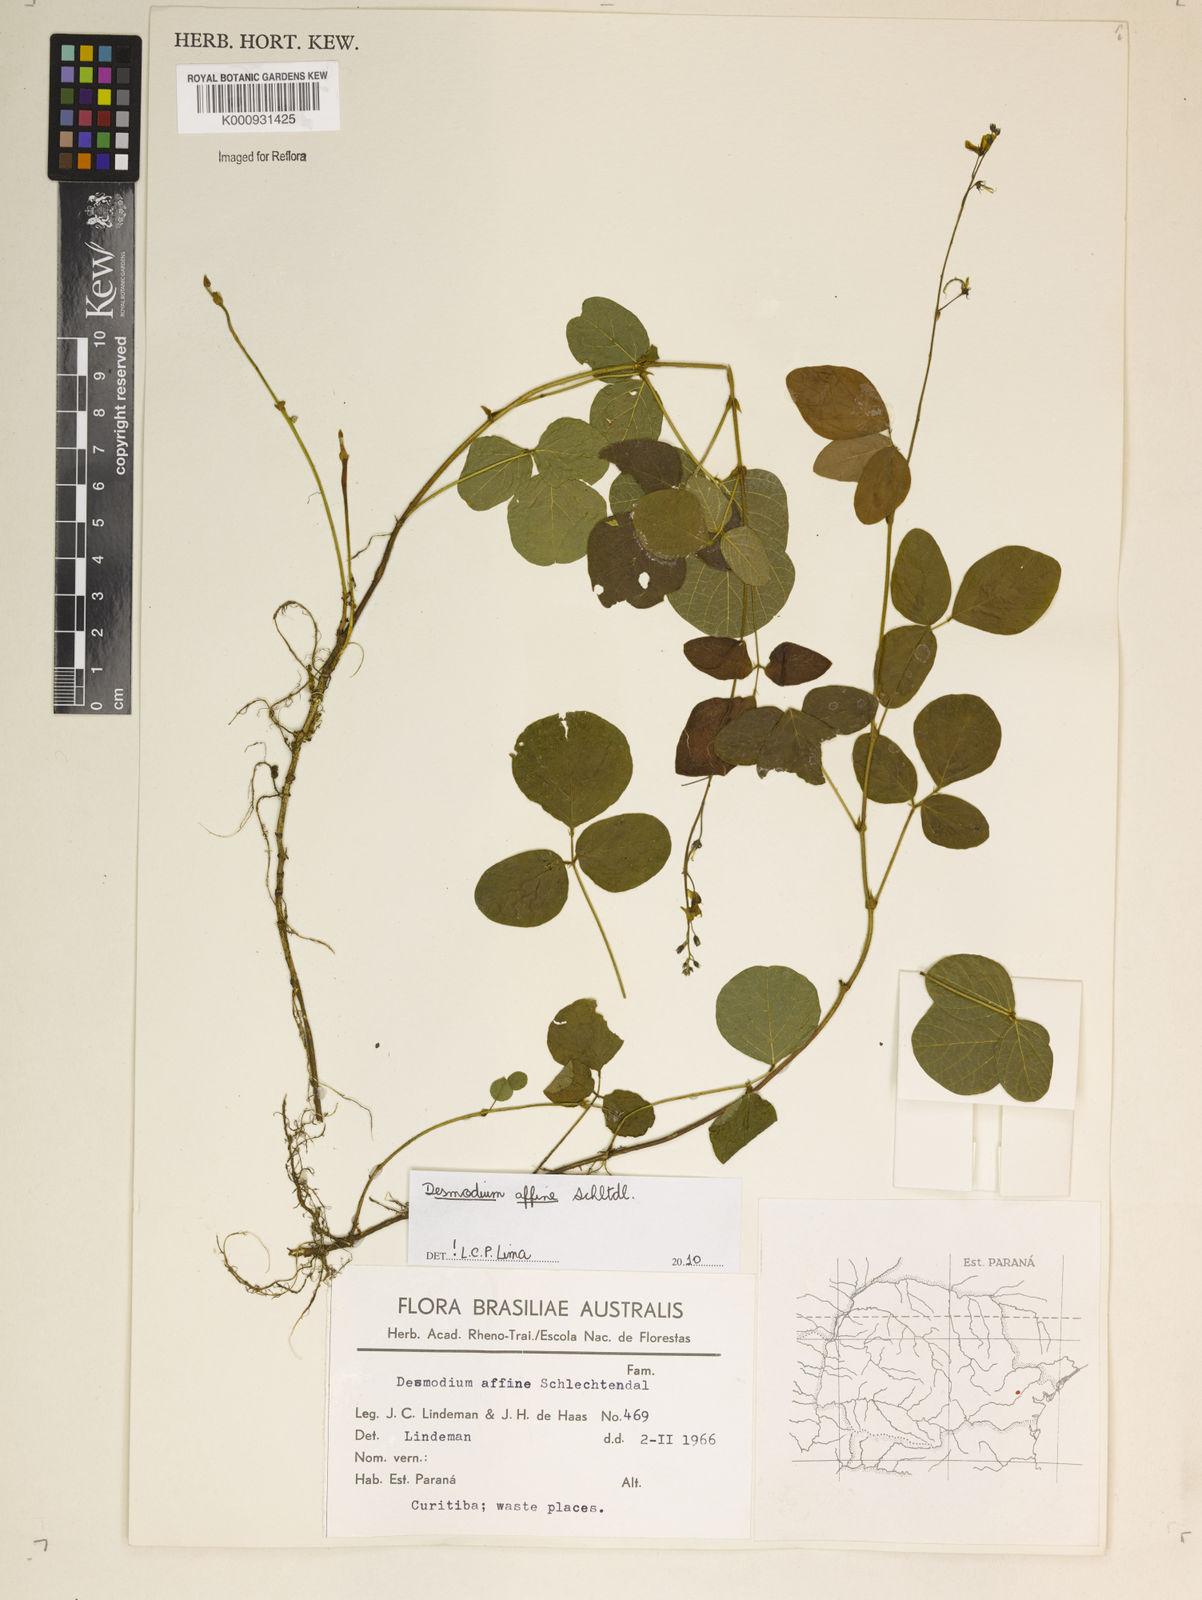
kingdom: Plantae
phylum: Tracheophyta
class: Magnoliopsida
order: Fabales
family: Fabaceae
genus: Desmodium
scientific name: Desmodium affine
